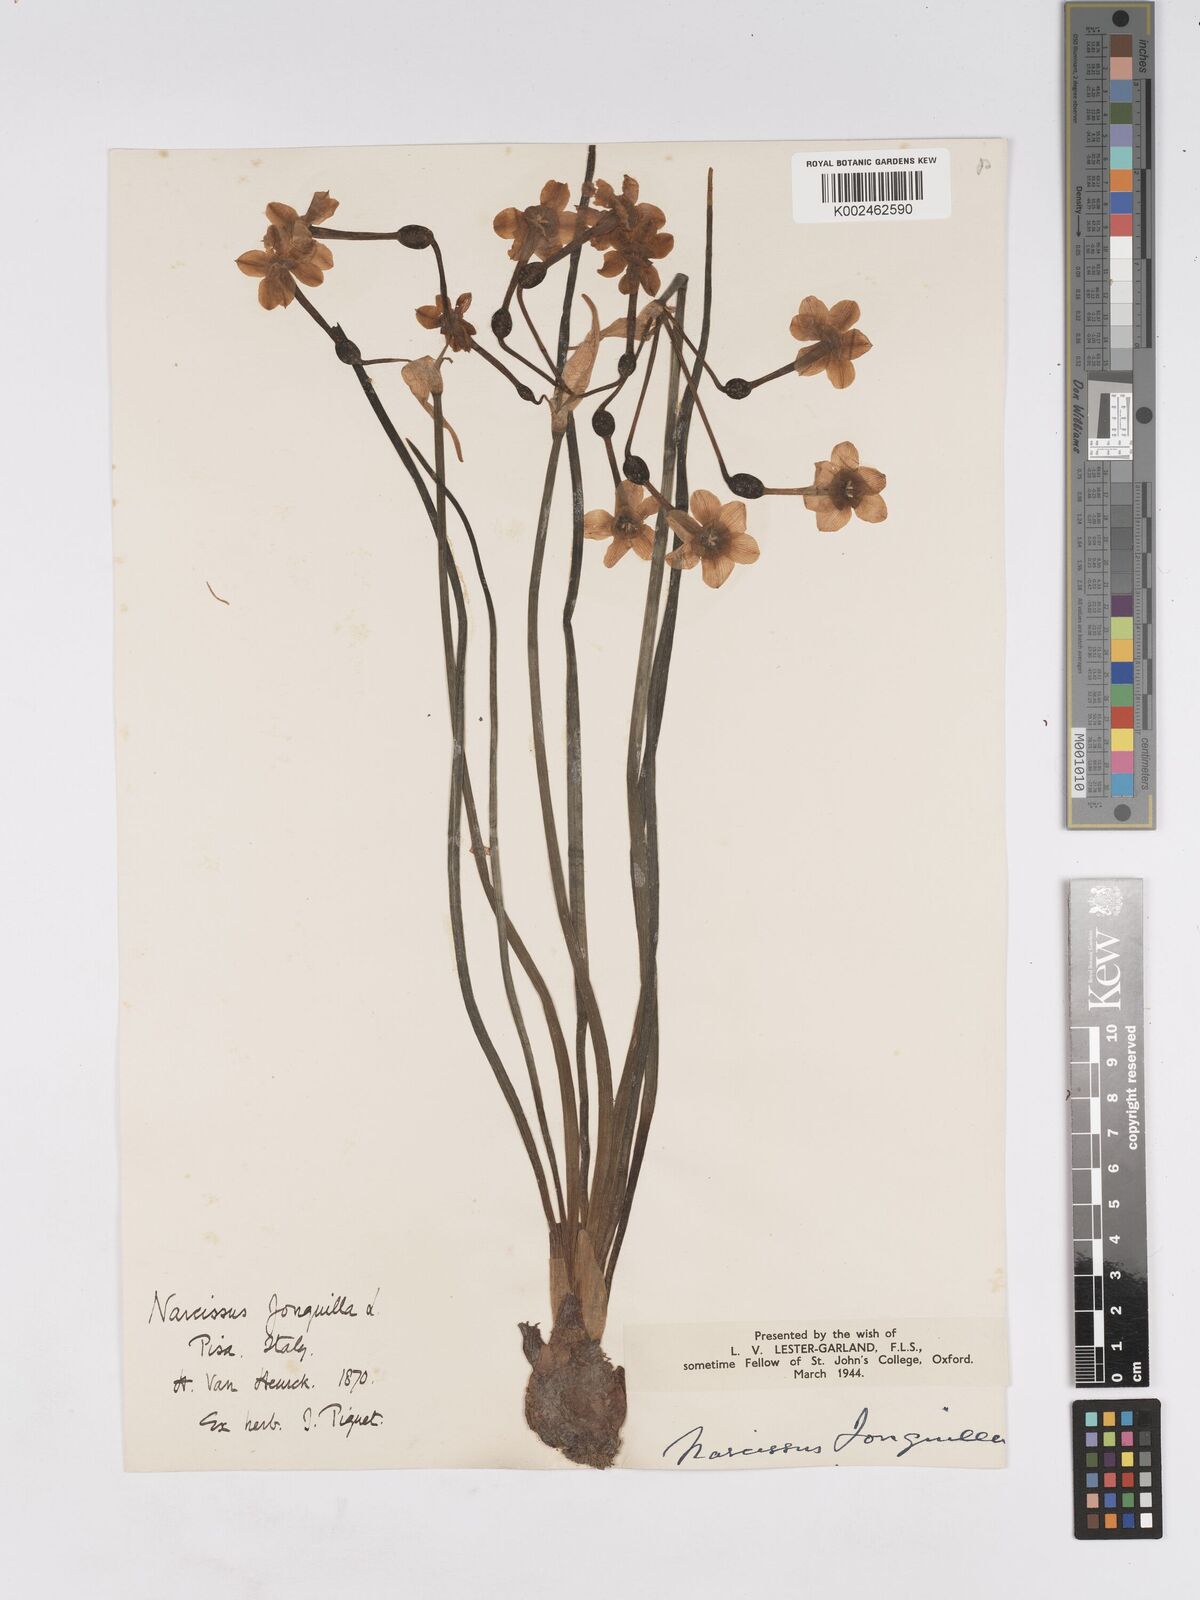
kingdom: Plantae
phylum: Tracheophyta
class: Liliopsida
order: Asparagales
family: Amaryllidaceae
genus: Narcissus
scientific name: Narcissus jonquilla
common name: Jonquil
